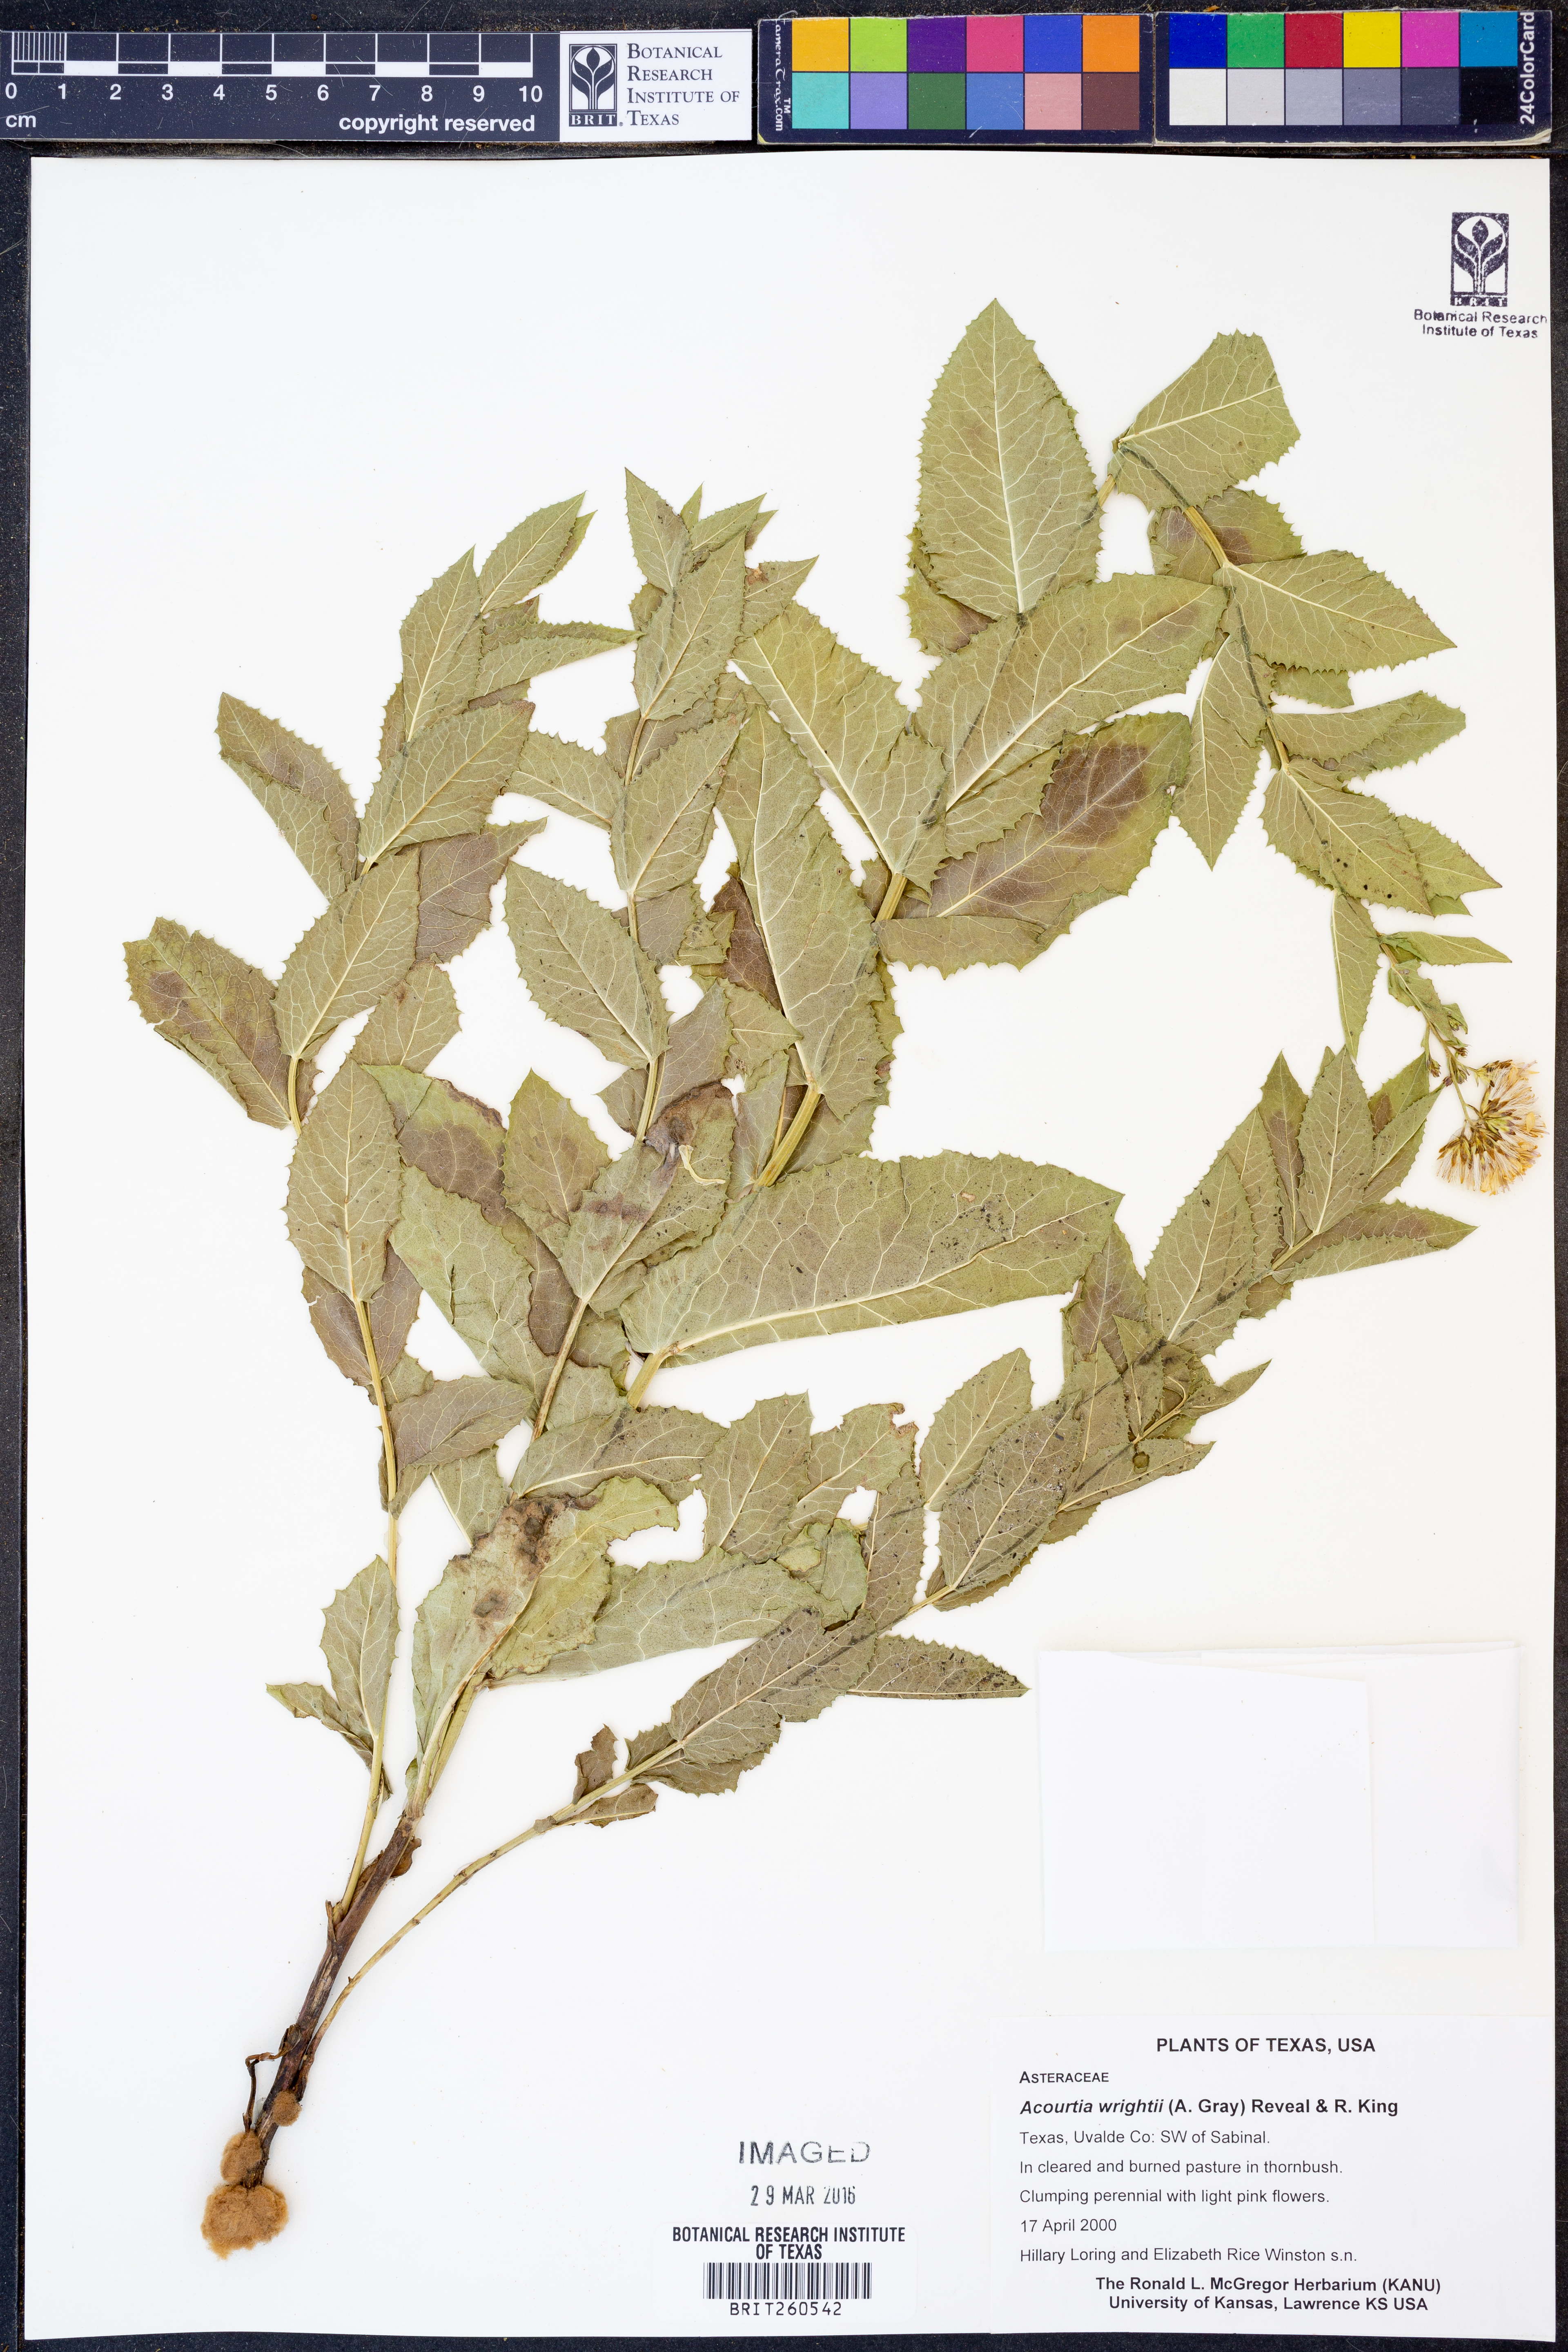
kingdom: Plantae
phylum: Tracheophyta
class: Magnoliopsida
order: Asterales
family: Asteraceae
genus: Acourtia
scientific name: Acourtia wrightii
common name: Brownfoot
